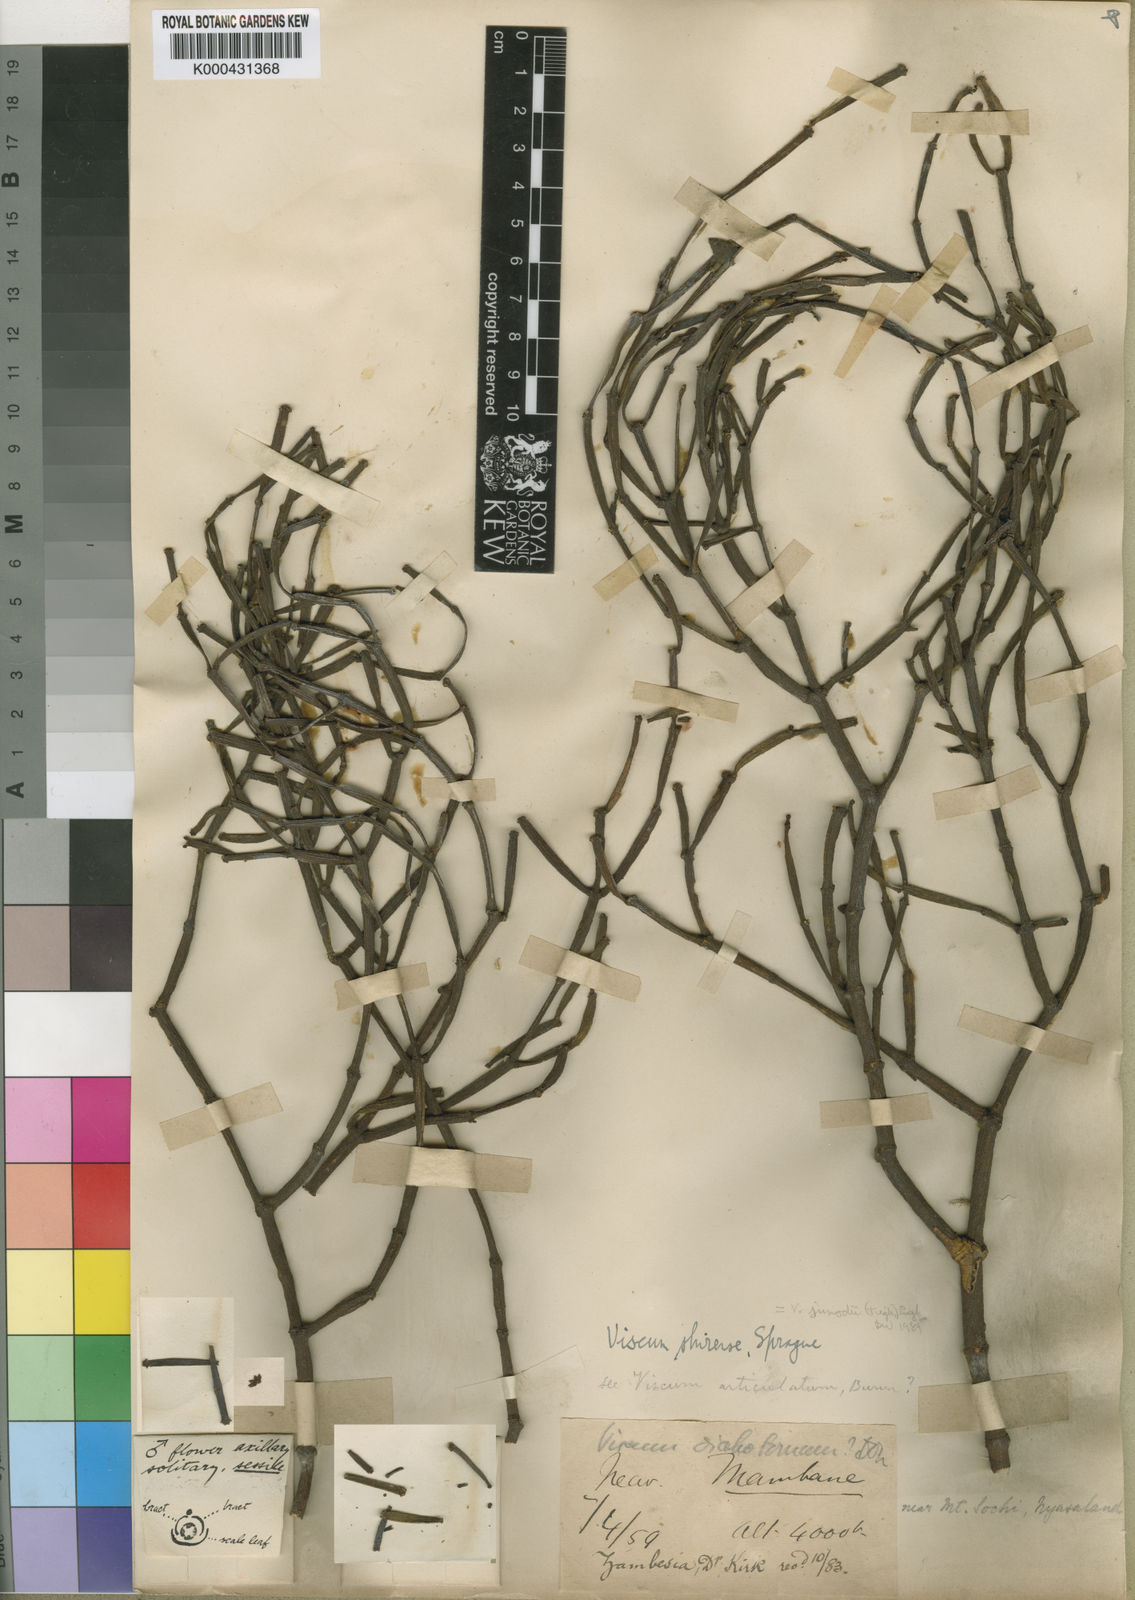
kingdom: Plantae
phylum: Tracheophyta
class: Magnoliopsida
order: Santalales
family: Viscaceae
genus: Viscum
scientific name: Viscum junodii
